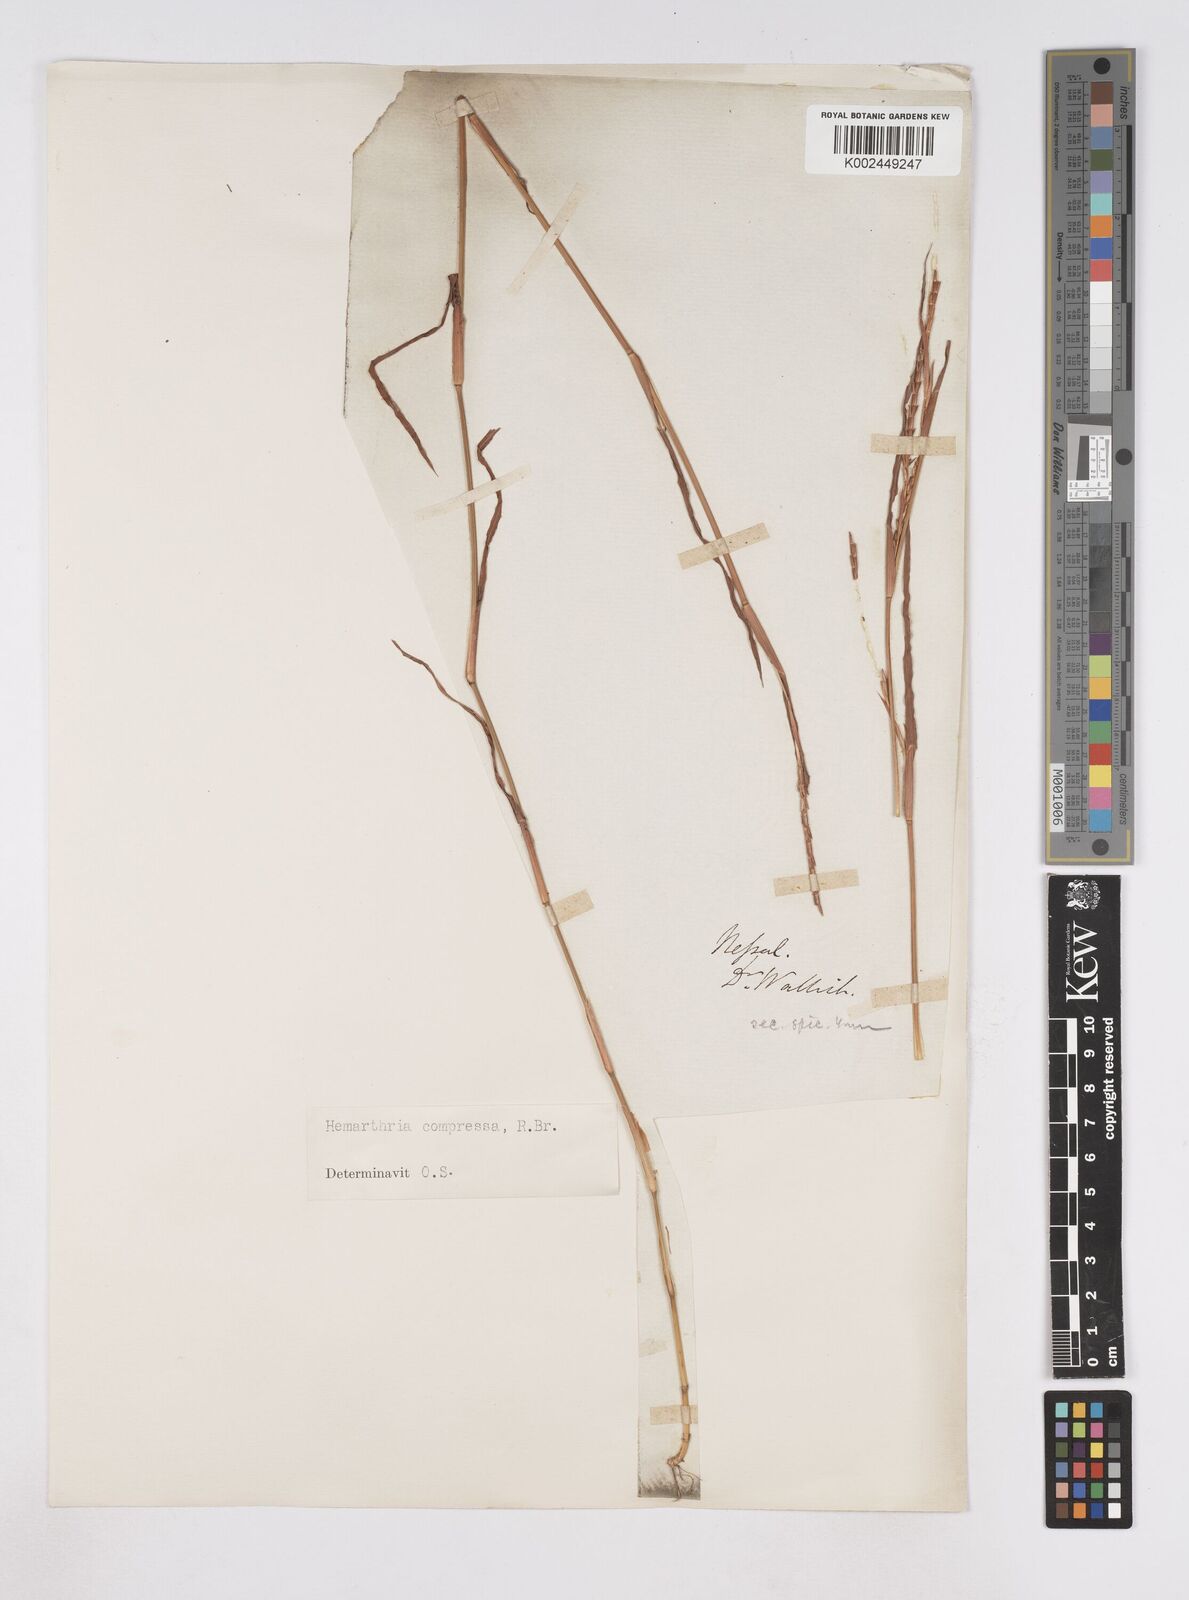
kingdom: Plantae
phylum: Tracheophyta
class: Liliopsida
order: Poales
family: Poaceae
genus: Hemarthria
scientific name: Hemarthria compressa
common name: Whip grass
